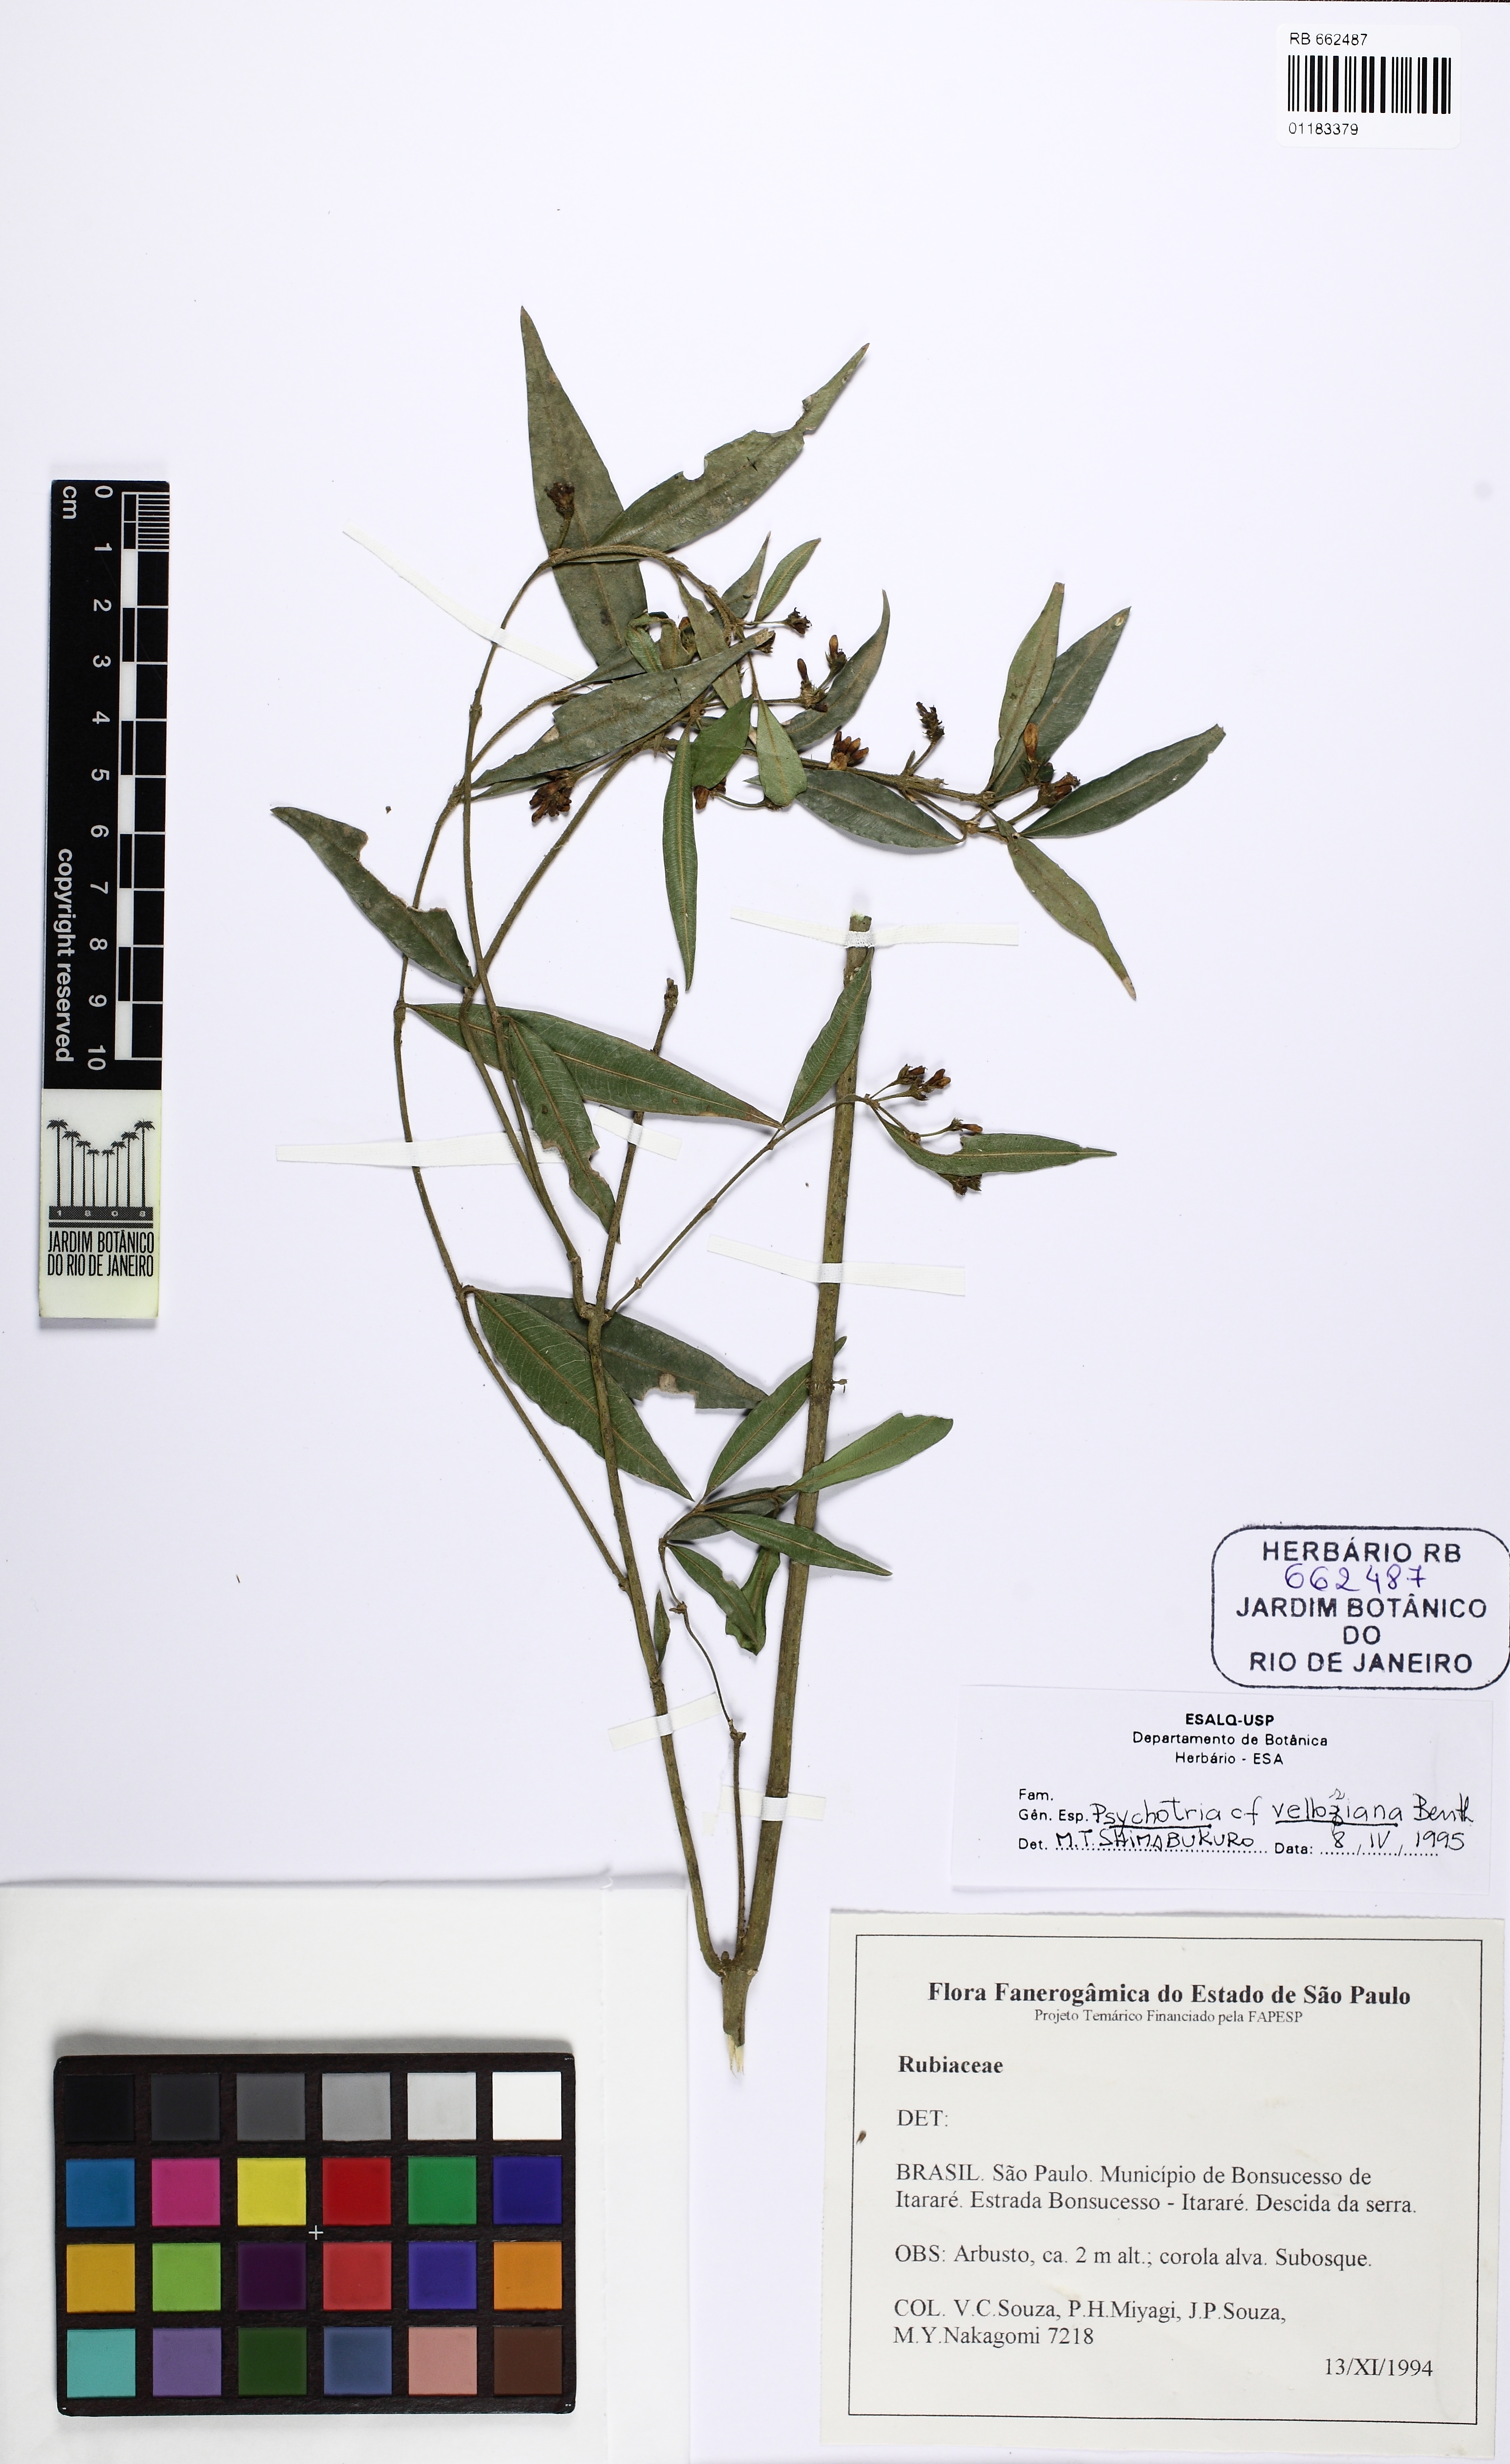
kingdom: Plantae
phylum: Tracheophyta
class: Magnoliopsida
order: Gentianales
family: Rubiaceae
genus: Palicourea
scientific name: Palicourea sessilis
